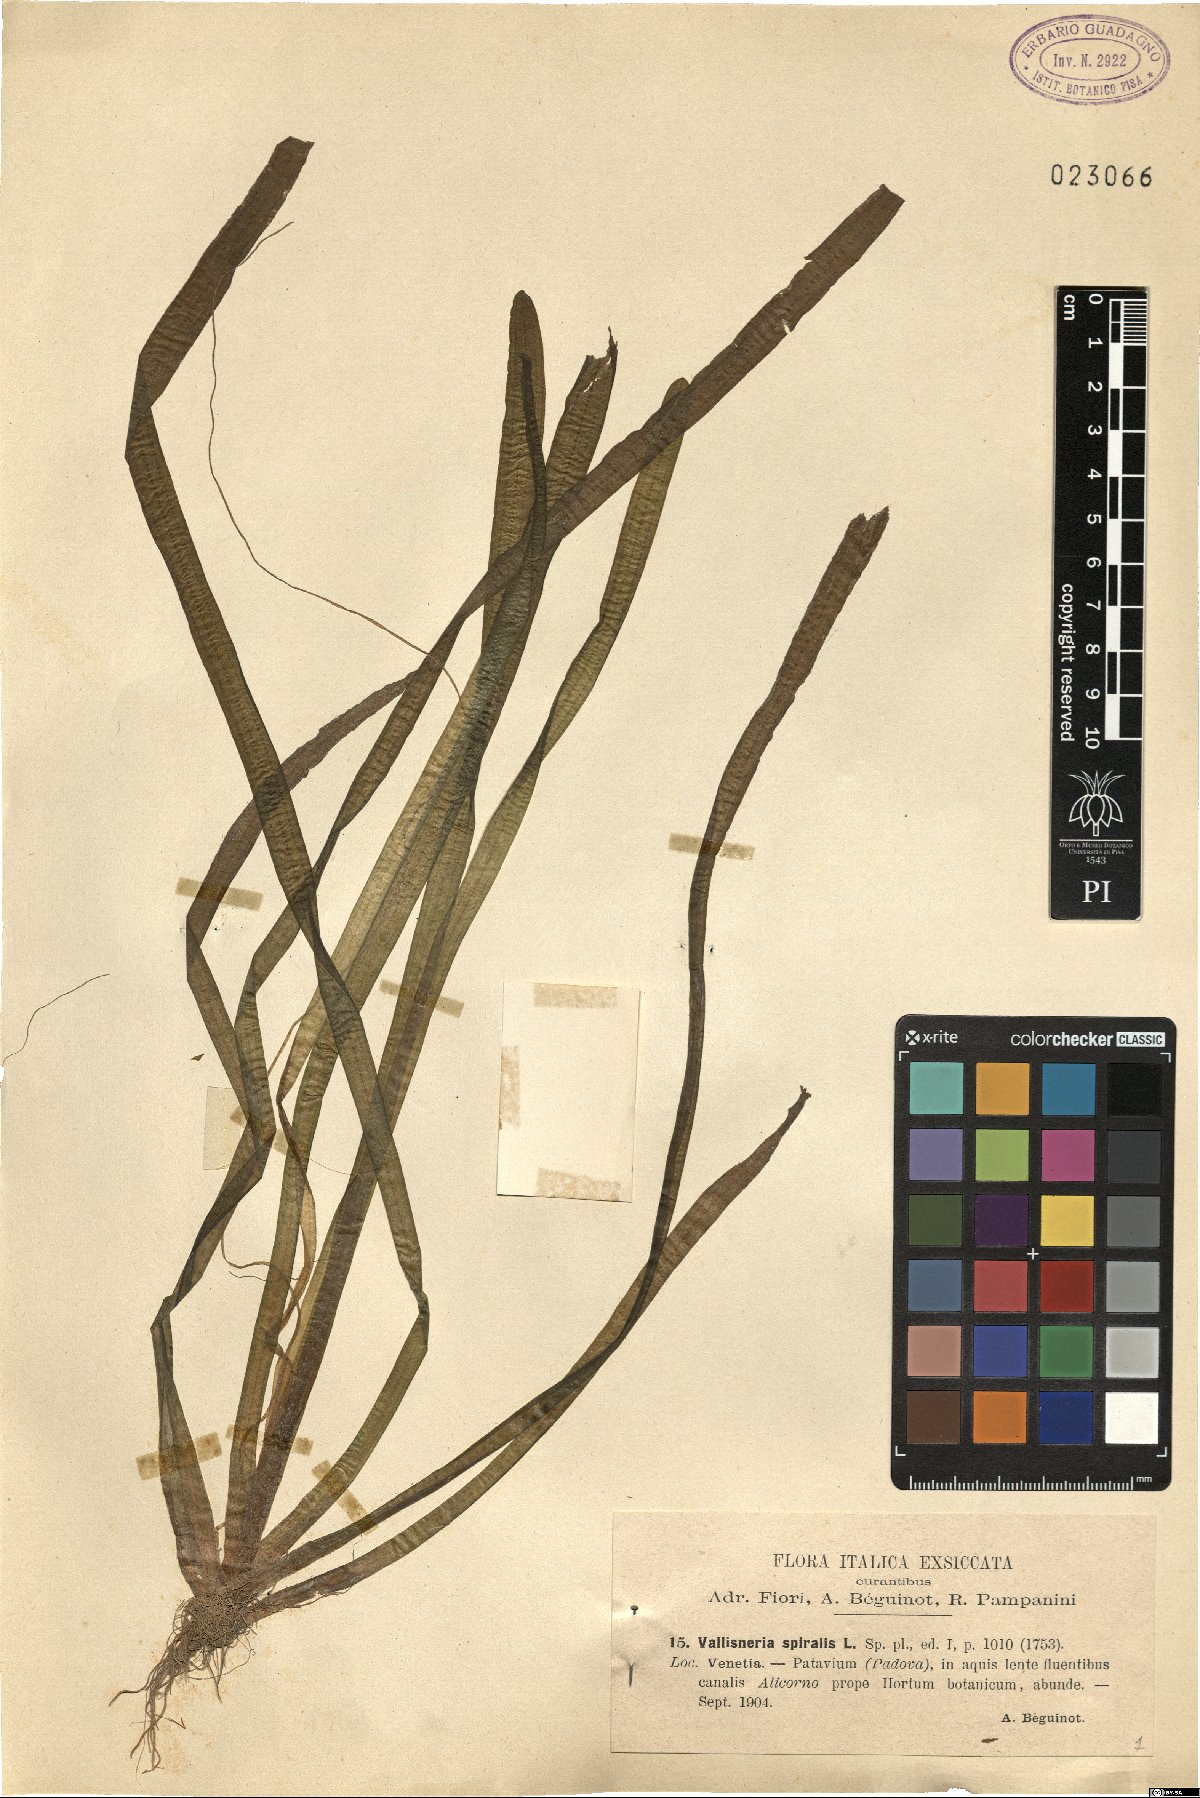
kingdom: Plantae
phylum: Tracheophyta
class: Liliopsida
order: Alismatales
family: Hydrocharitaceae
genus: Vallisneria
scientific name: Vallisneria spiralis
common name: Tapegrass
